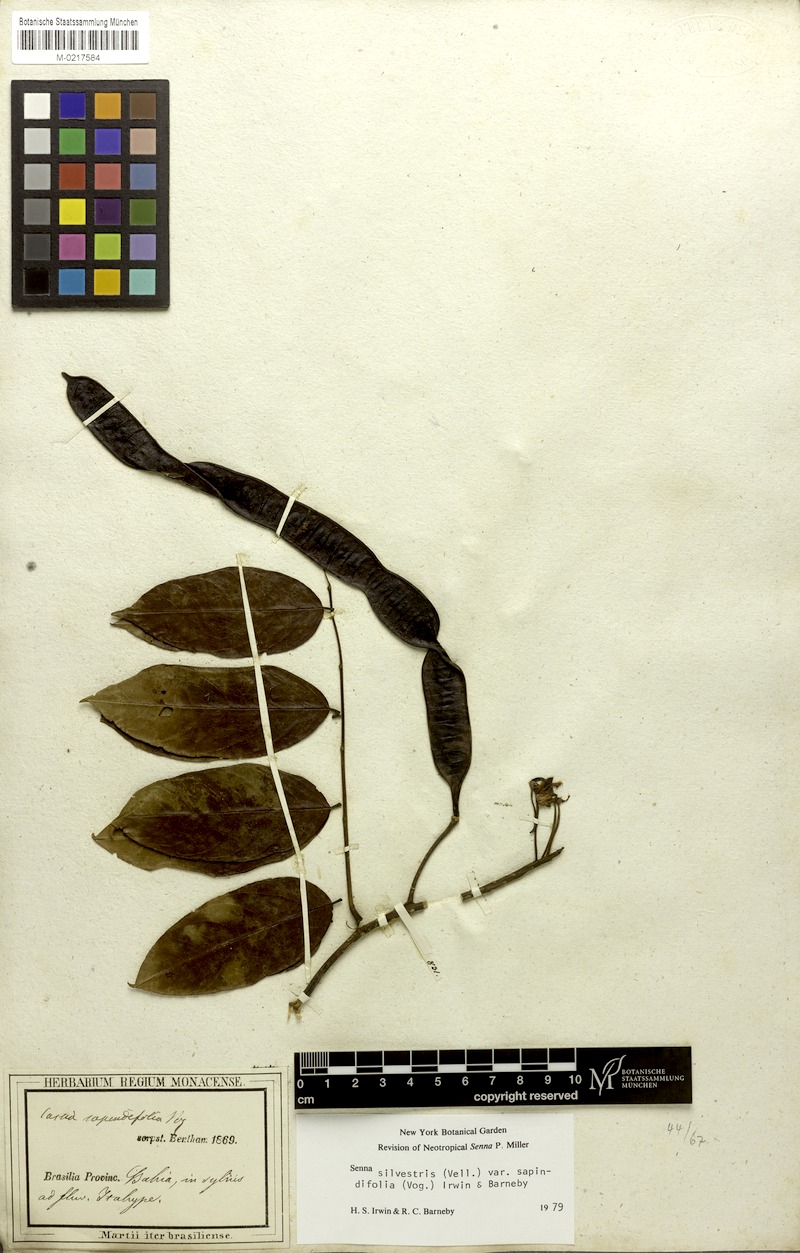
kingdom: Plantae
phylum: Tracheophyta
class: Magnoliopsida
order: Fabales
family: Fabaceae
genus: Senna
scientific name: Senna silvestris
